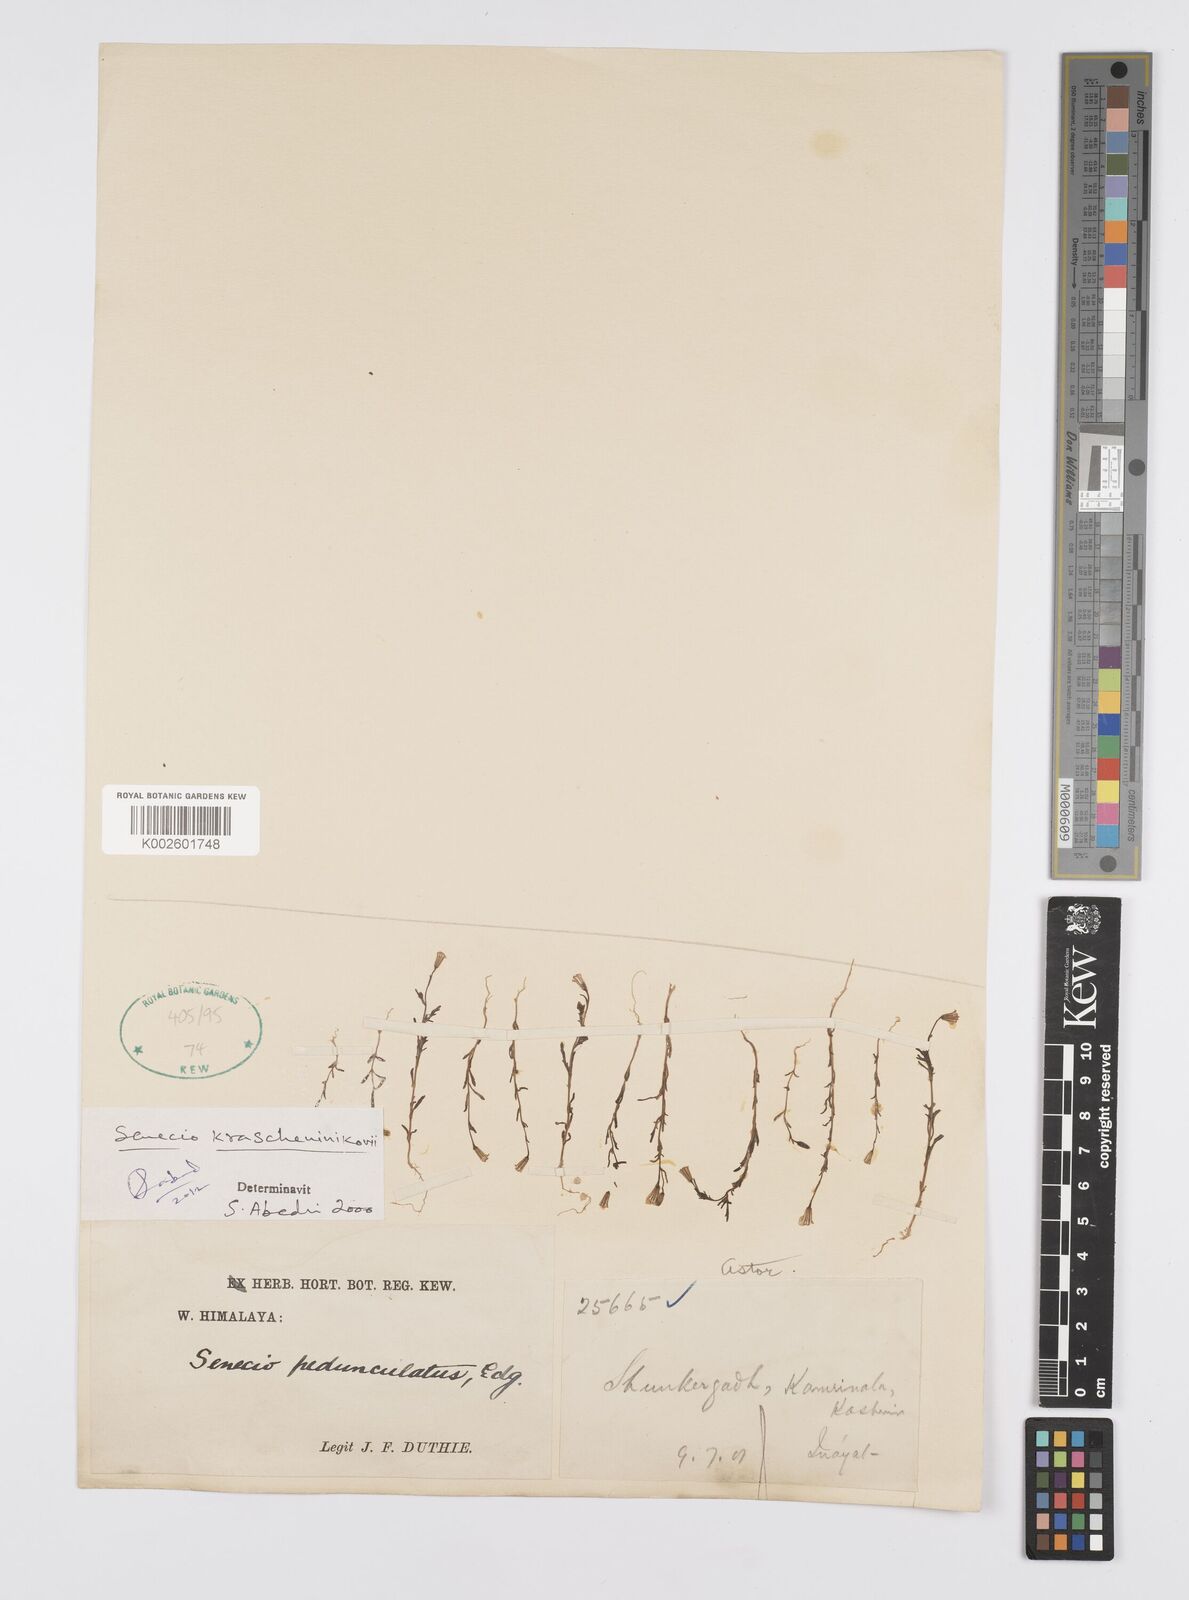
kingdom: Plantae
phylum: Tracheophyta
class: Magnoliopsida
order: Asterales
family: Asteraceae
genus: Senecio
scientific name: Senecio krascheninnikovii
